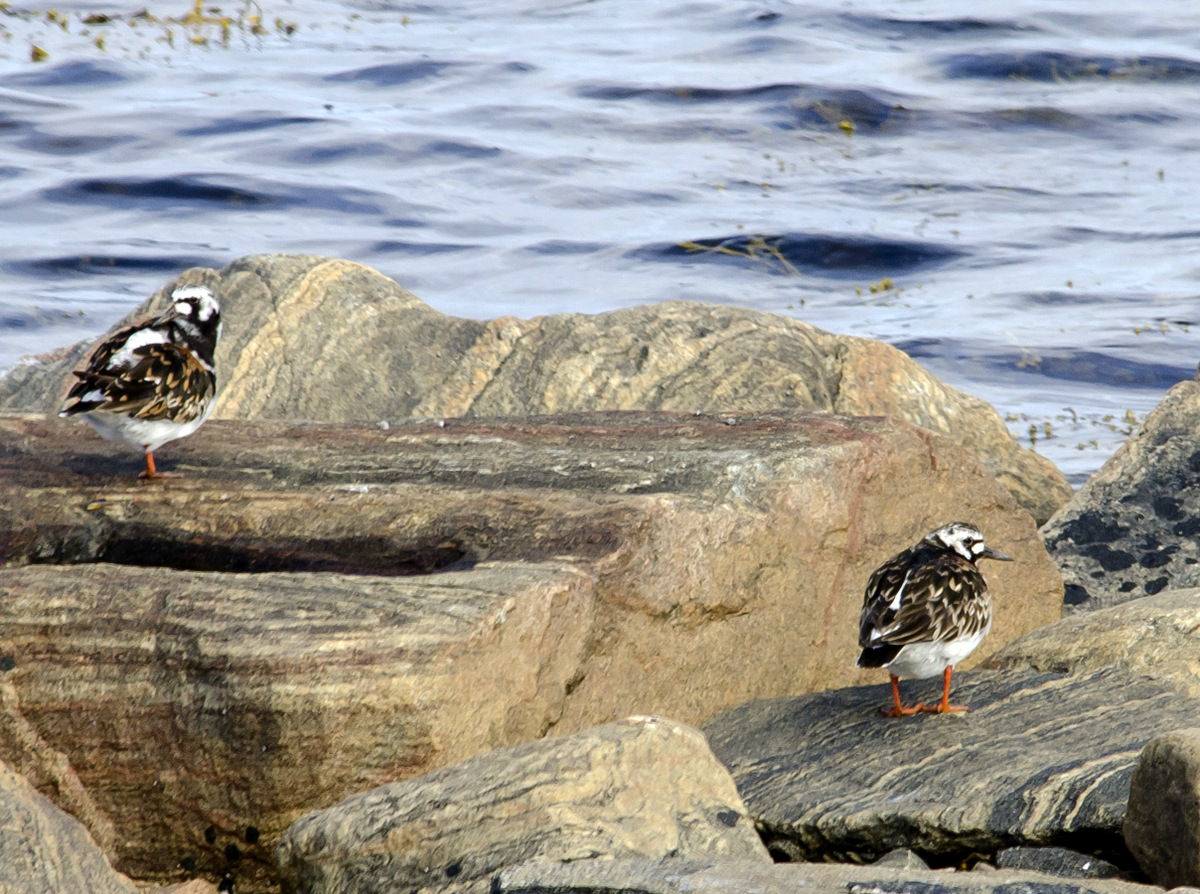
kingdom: Animalia
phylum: Chordata
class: Aves
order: Charadriiformes
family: Scolopacidae
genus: Arenaria
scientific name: Arenaria interpres
